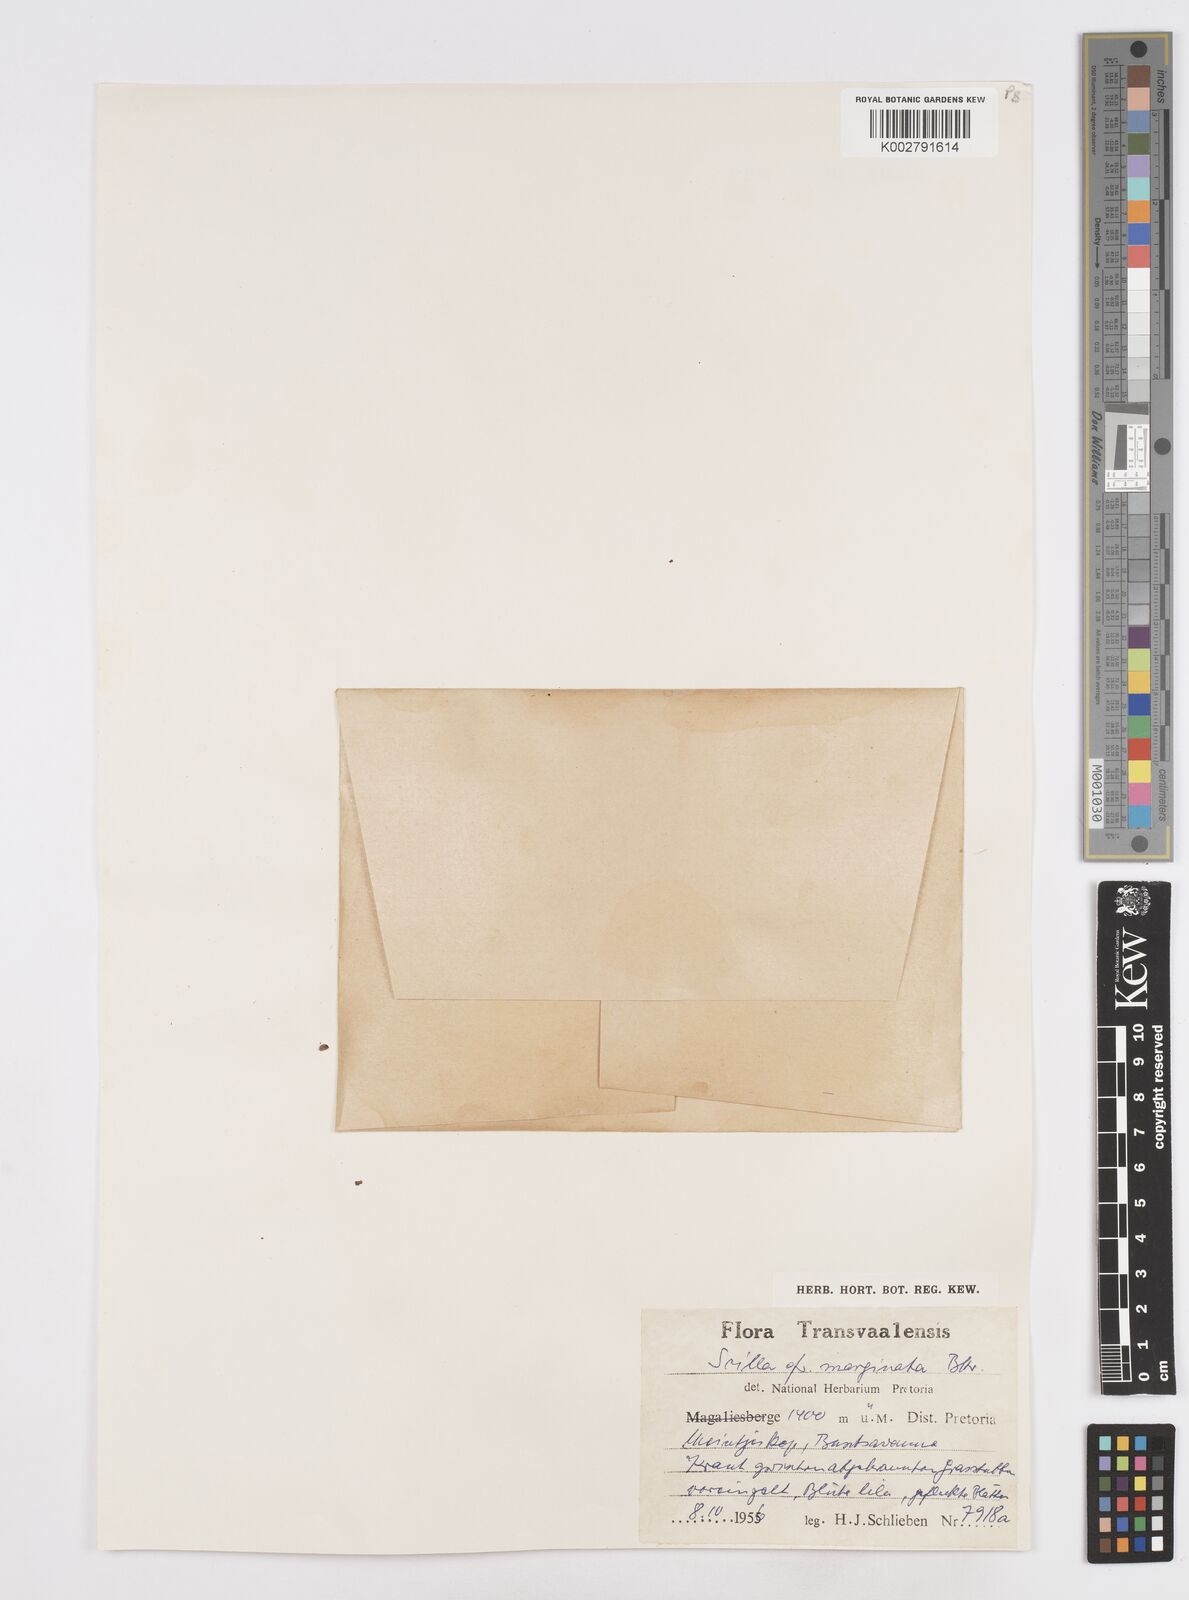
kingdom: Plantae
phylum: Tracheophyta
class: Liliopsida
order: Asparagales
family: Asparagaceae
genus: Scilla
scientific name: Scilla
